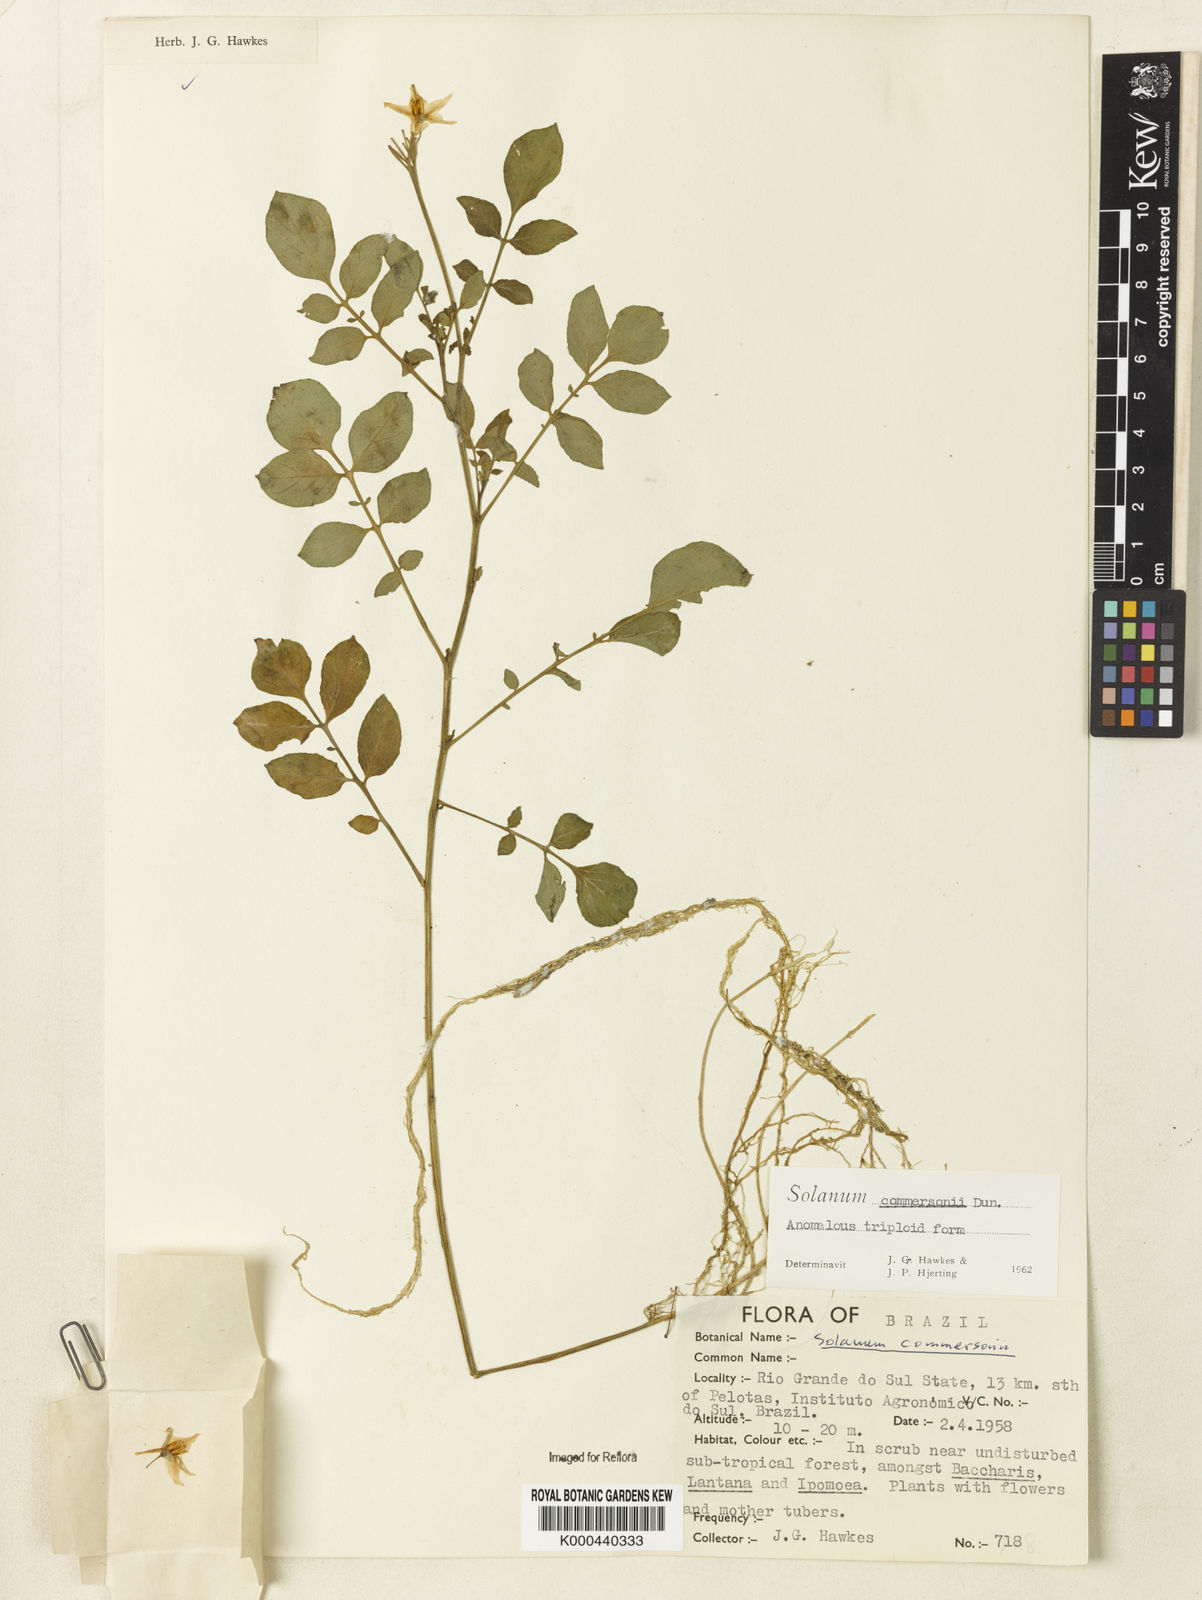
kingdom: Plantae
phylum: Tracheophyta
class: Magnoliopsida
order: Solanales
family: Solanaceae
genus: Solanum
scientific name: Solanum commersonii
